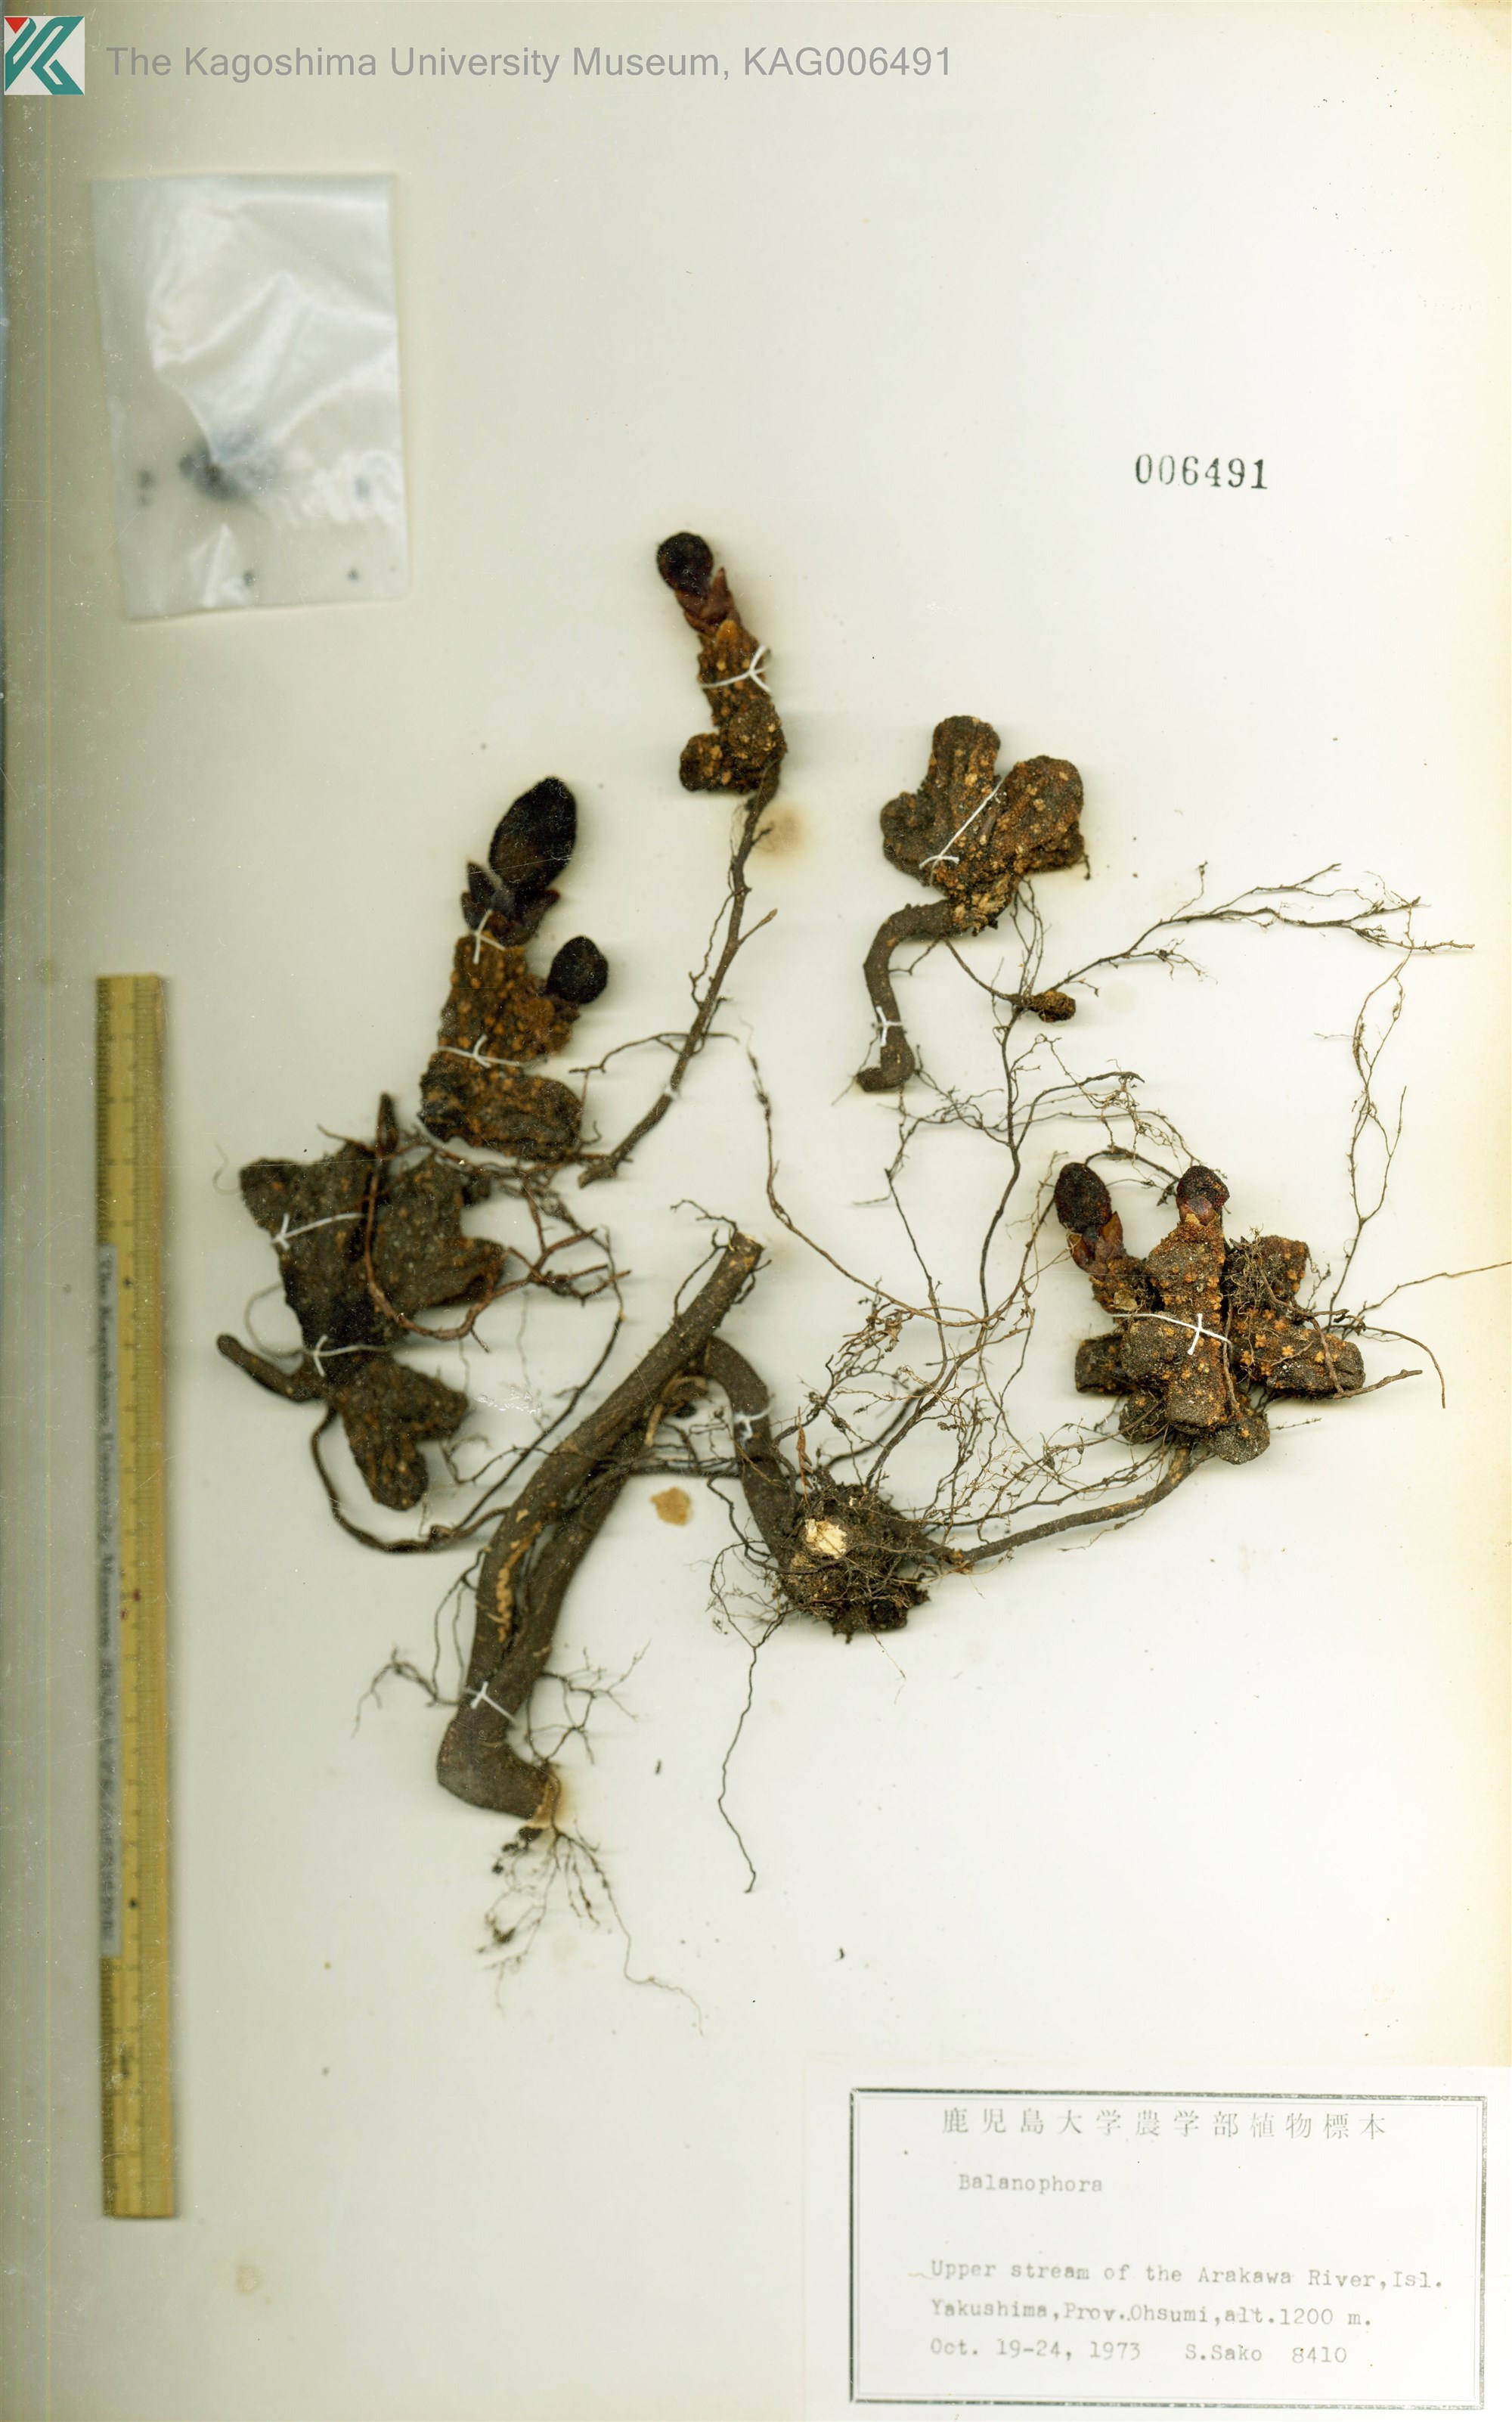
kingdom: Plantae
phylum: Tracheophyta
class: Magnoliopsida
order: Santalales
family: Balanophoraceae
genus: Balanophora
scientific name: Balanophora yakushimensis
